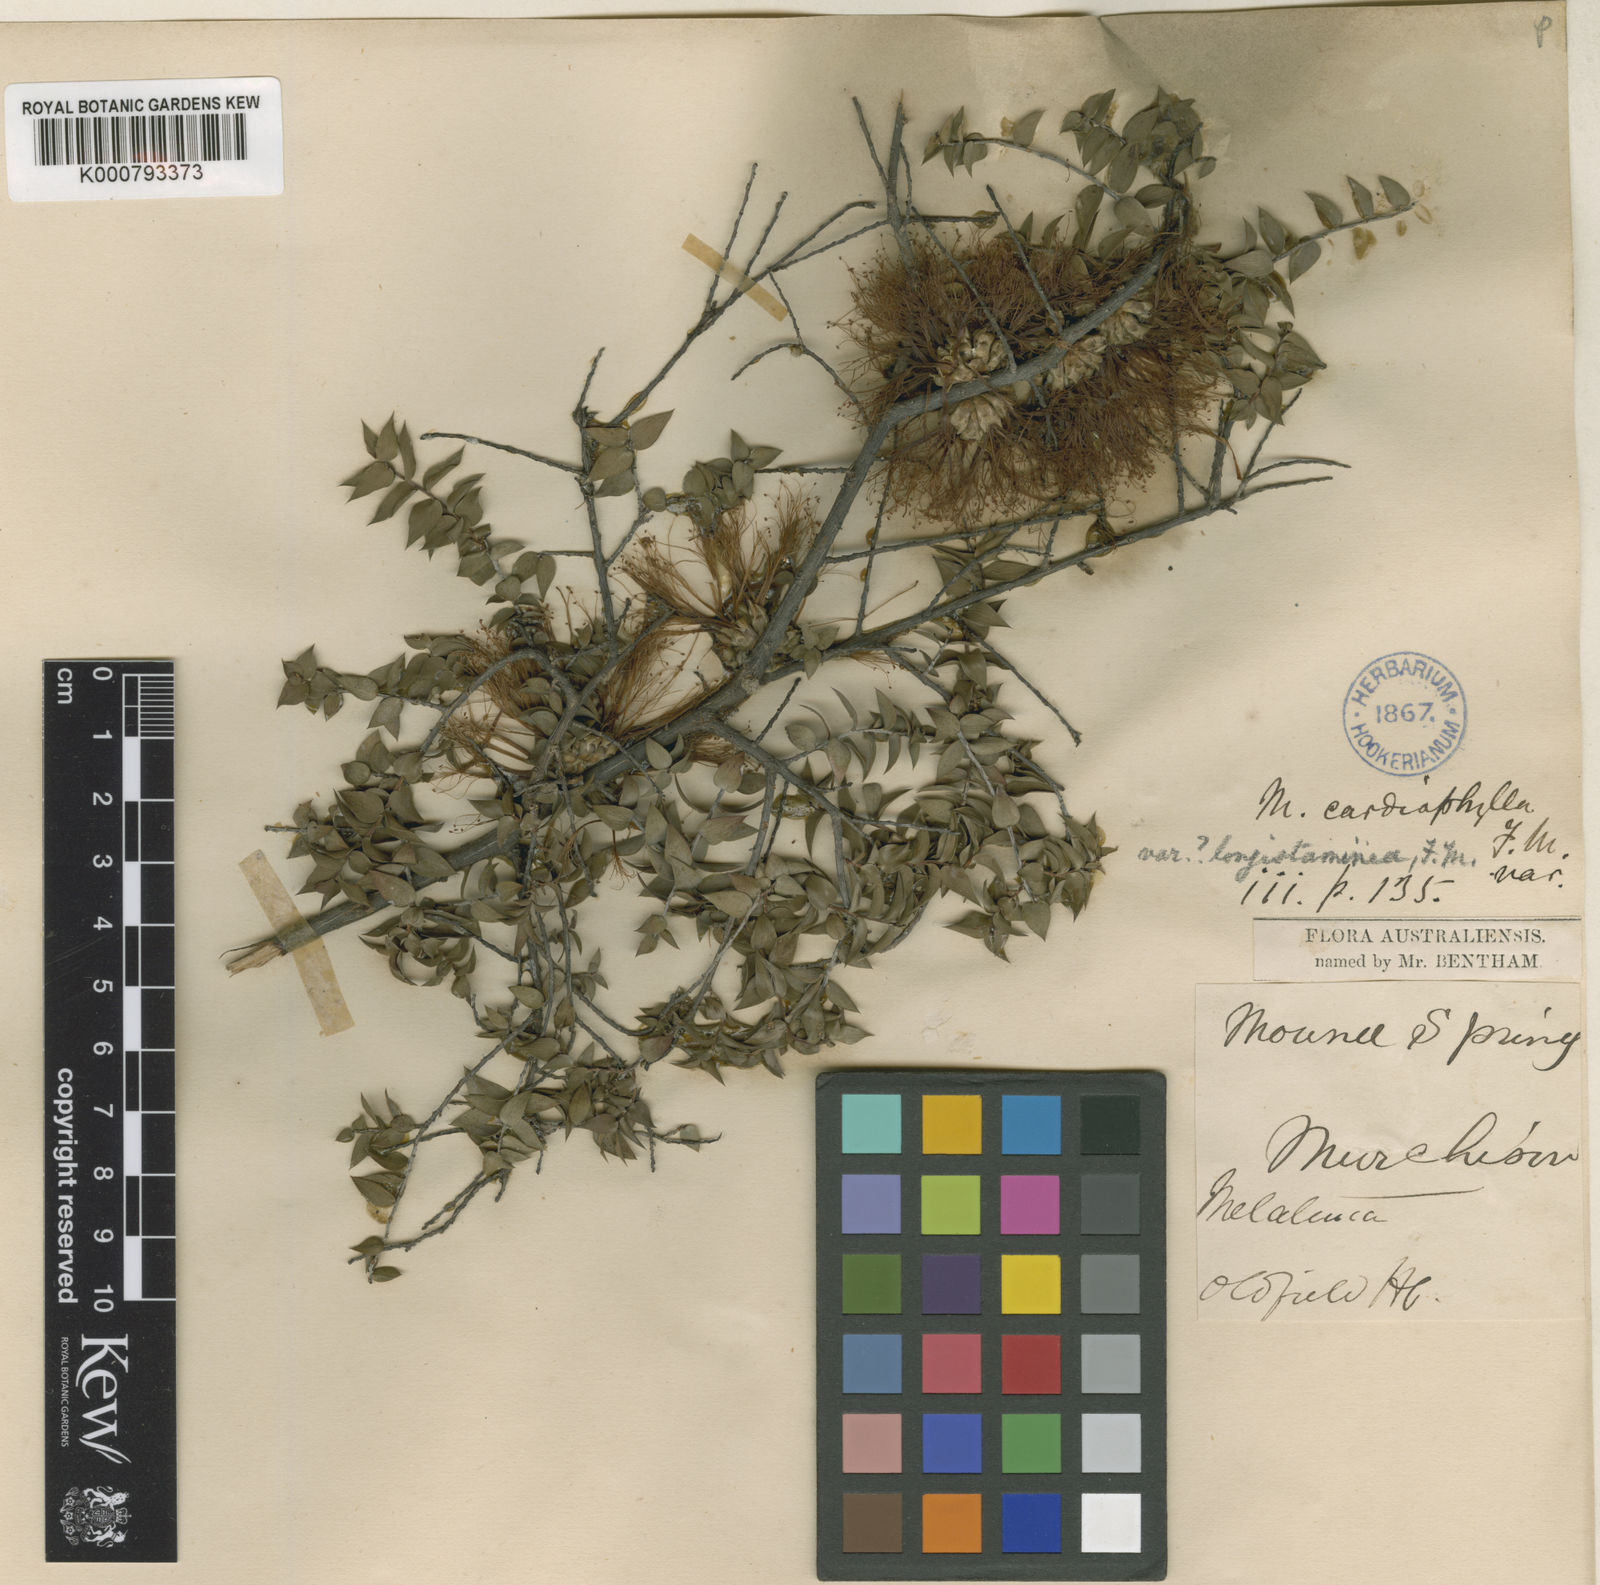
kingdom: Plantae
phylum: Tracheophyta
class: Magnoliopsida
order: Myrtales
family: Myrtaceae
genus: Melaleuca
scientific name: Melaleuca longistaminea
